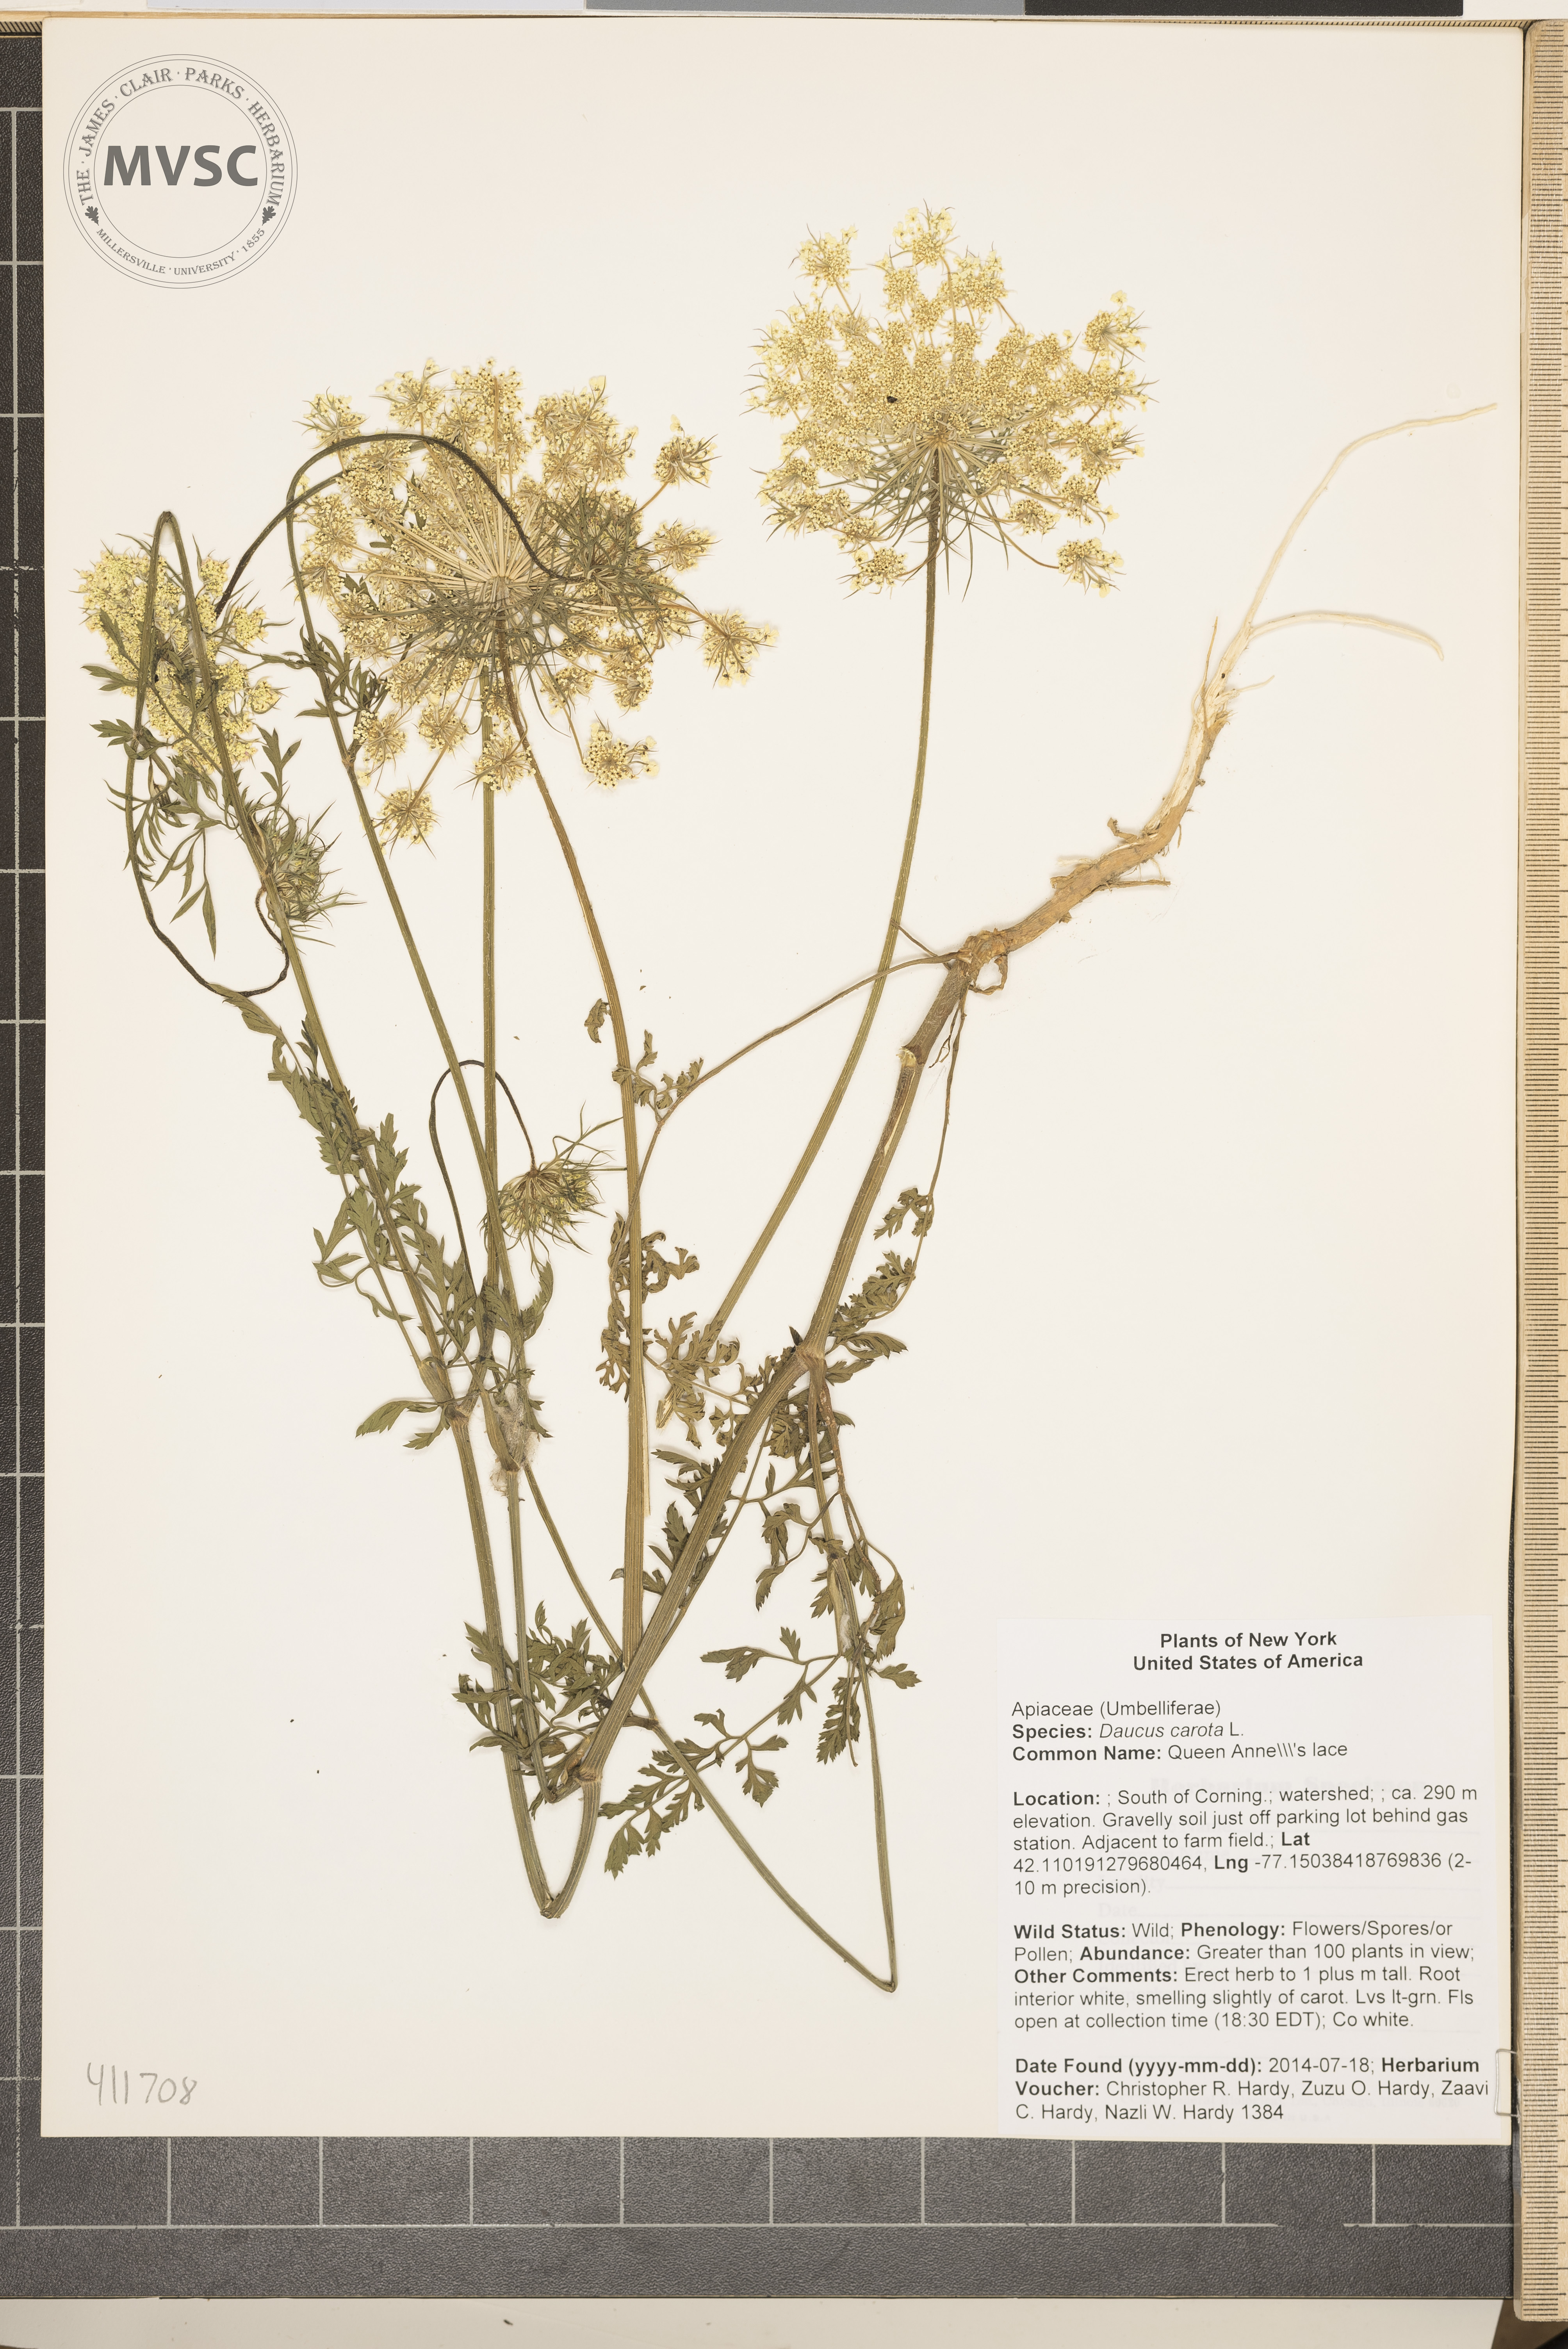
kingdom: Plantae
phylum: Tracheophyta
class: Magnoliopsida
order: Apiales
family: Apiaceae
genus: Daucus
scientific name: Daucus carota
